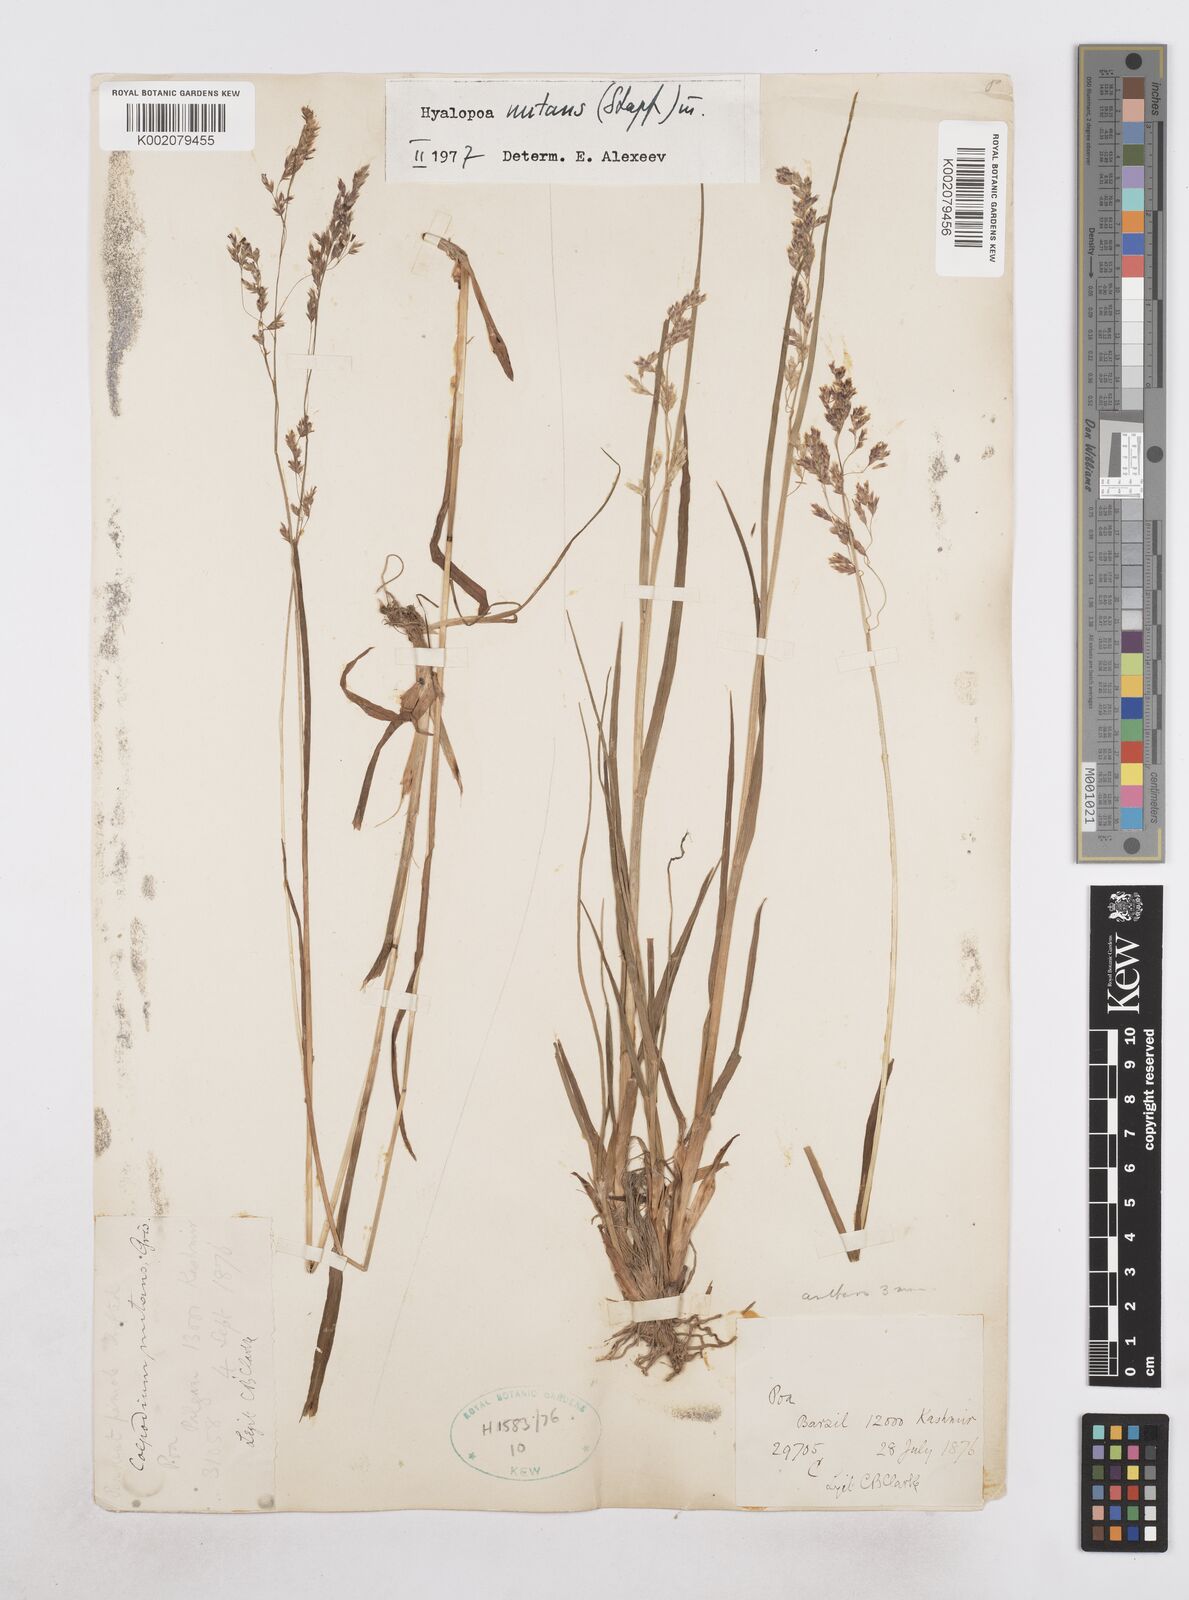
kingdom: Plantae
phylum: Tracheophyta
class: Liliopsida
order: Poales
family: Poaceae
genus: Hyalopoa
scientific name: Hyalopoa nutans
